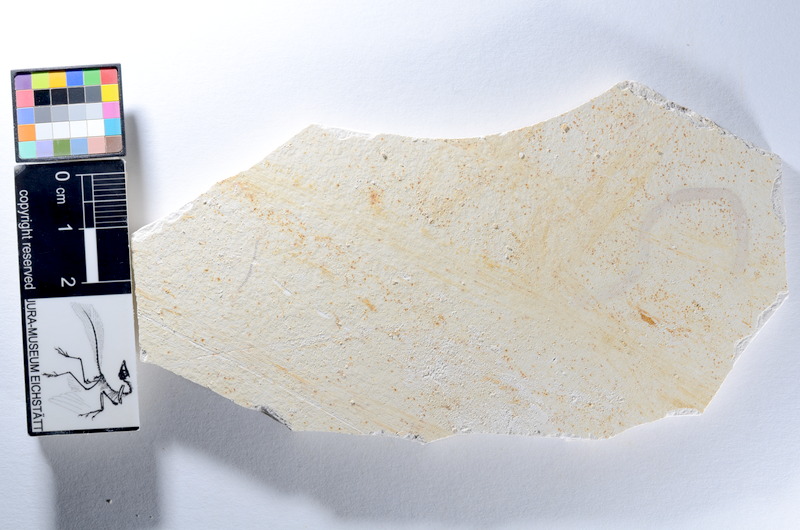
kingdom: Animalia
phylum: Chordata
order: Salmoniformes
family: Orthogonikleithridae
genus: Orthogonikleithrus
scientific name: Orthogonikleithrus hoelli
